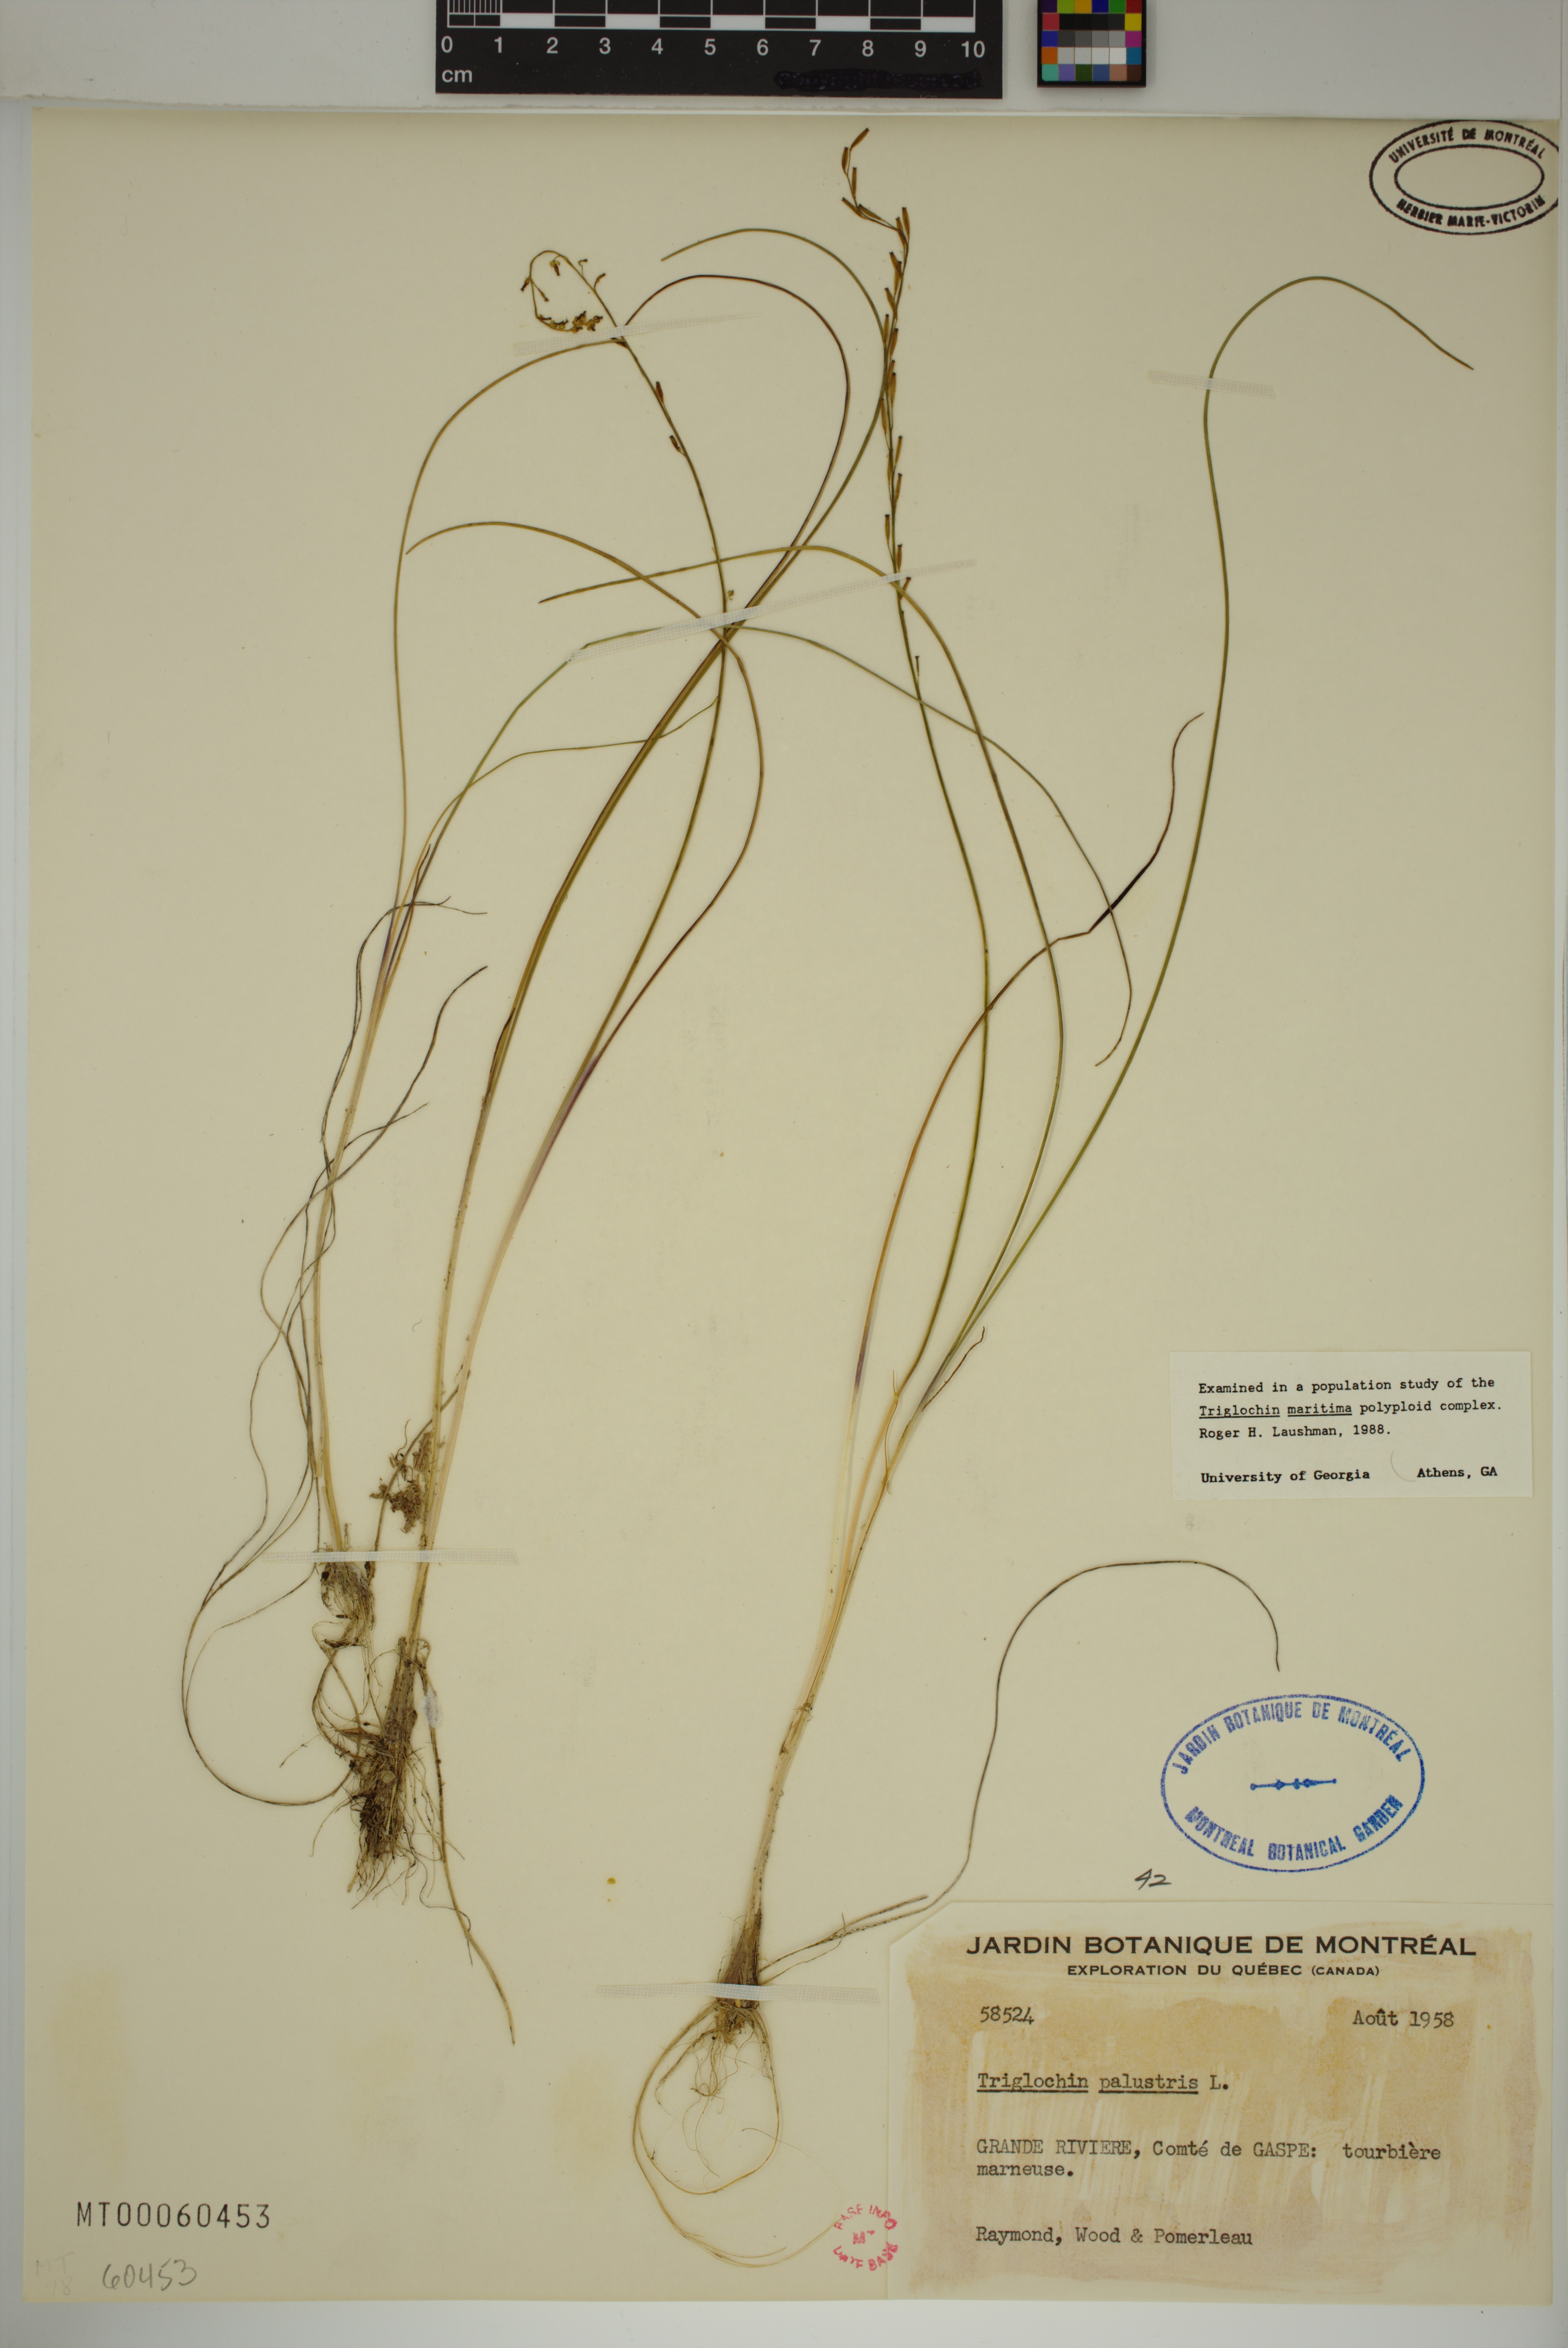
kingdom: Plantae
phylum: Tracheophyta
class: Liliopsida
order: Alismatales
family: Juncaginaceae
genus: Triglochin
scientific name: Triglochin palustris
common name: Marsh arrowgrass
